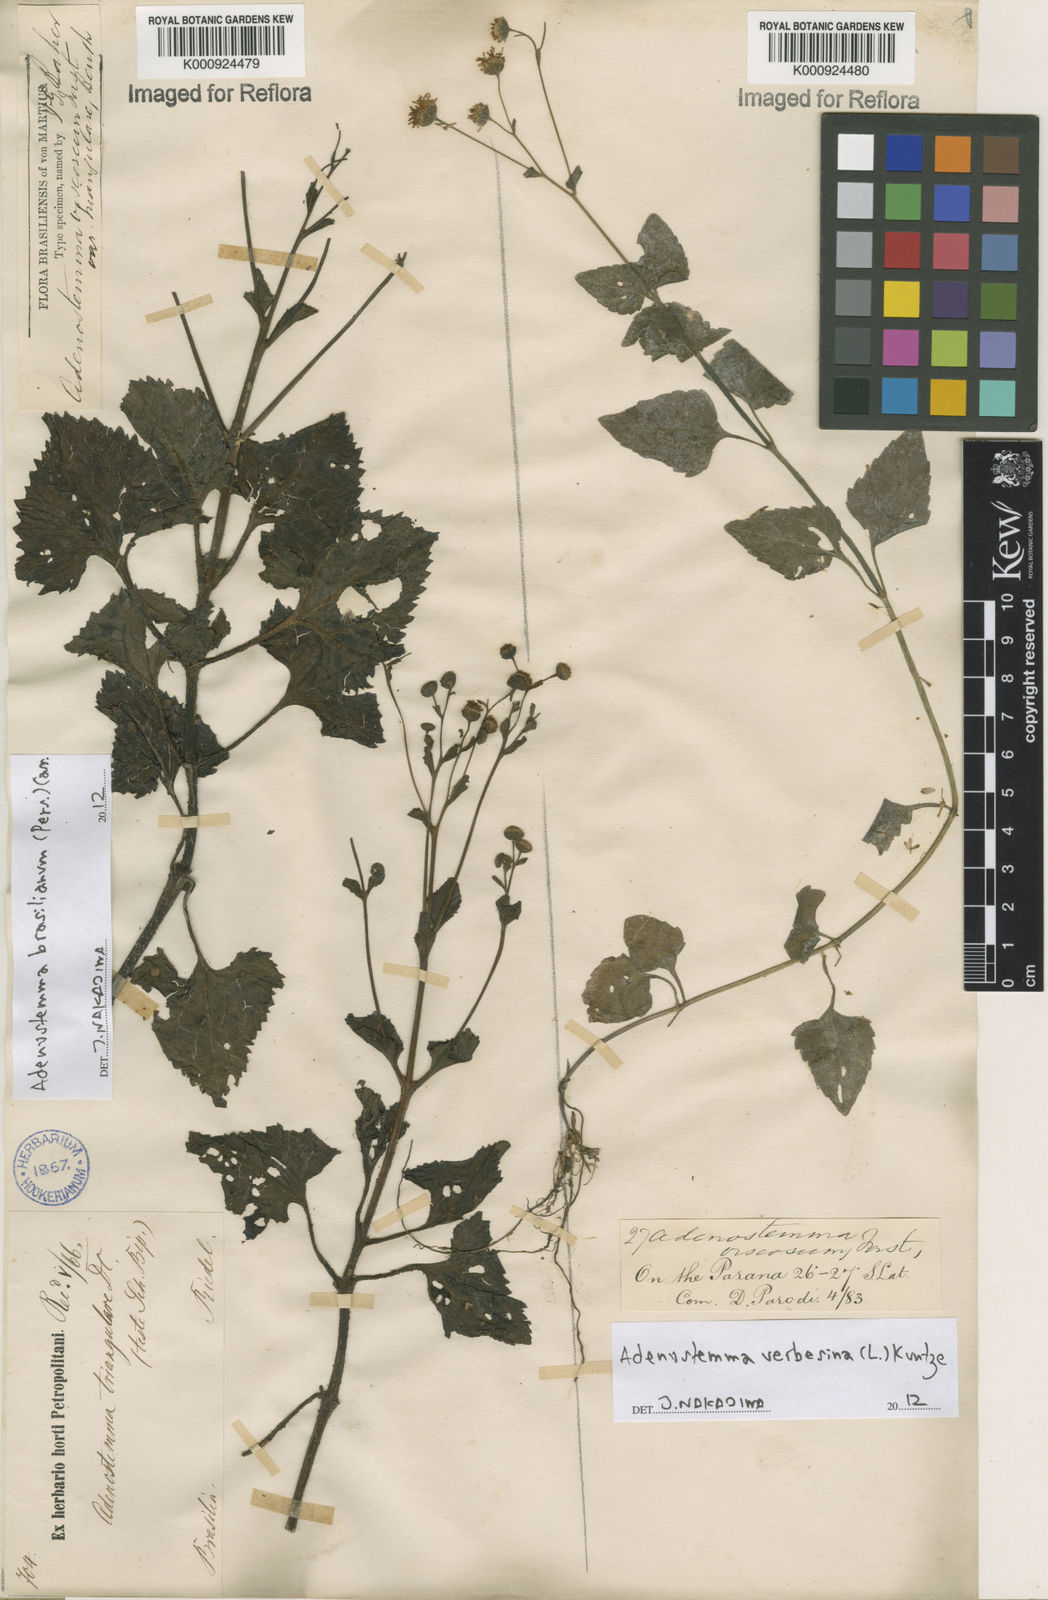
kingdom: Plantae
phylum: Tracheophyta
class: Magnoliopsida
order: Asterales
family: Asteraceae
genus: Adenostemma
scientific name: Adenostemma brasilianum
